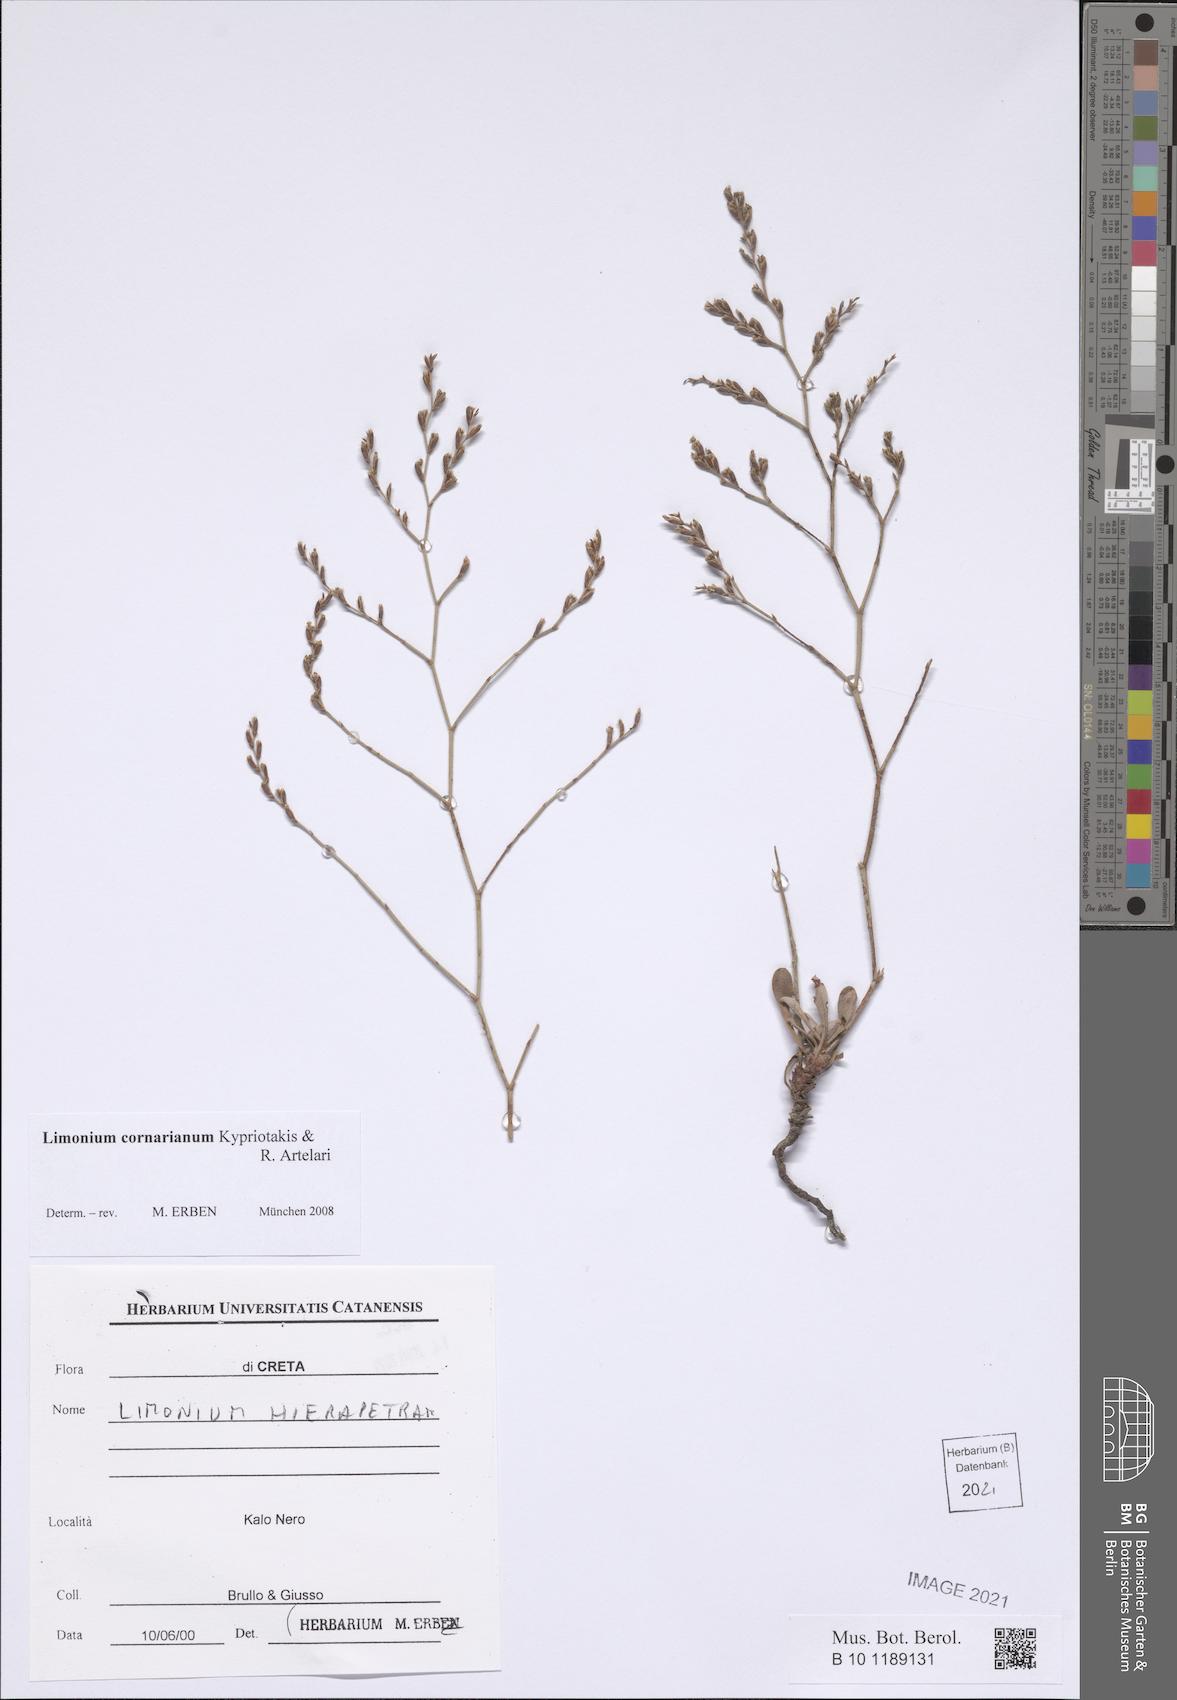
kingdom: Plantae
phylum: Tracheophyta
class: Magnoliopsida
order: Caryophyllales
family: Plumbaginaceae
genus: Limonium
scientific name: Limonium cornarianum
